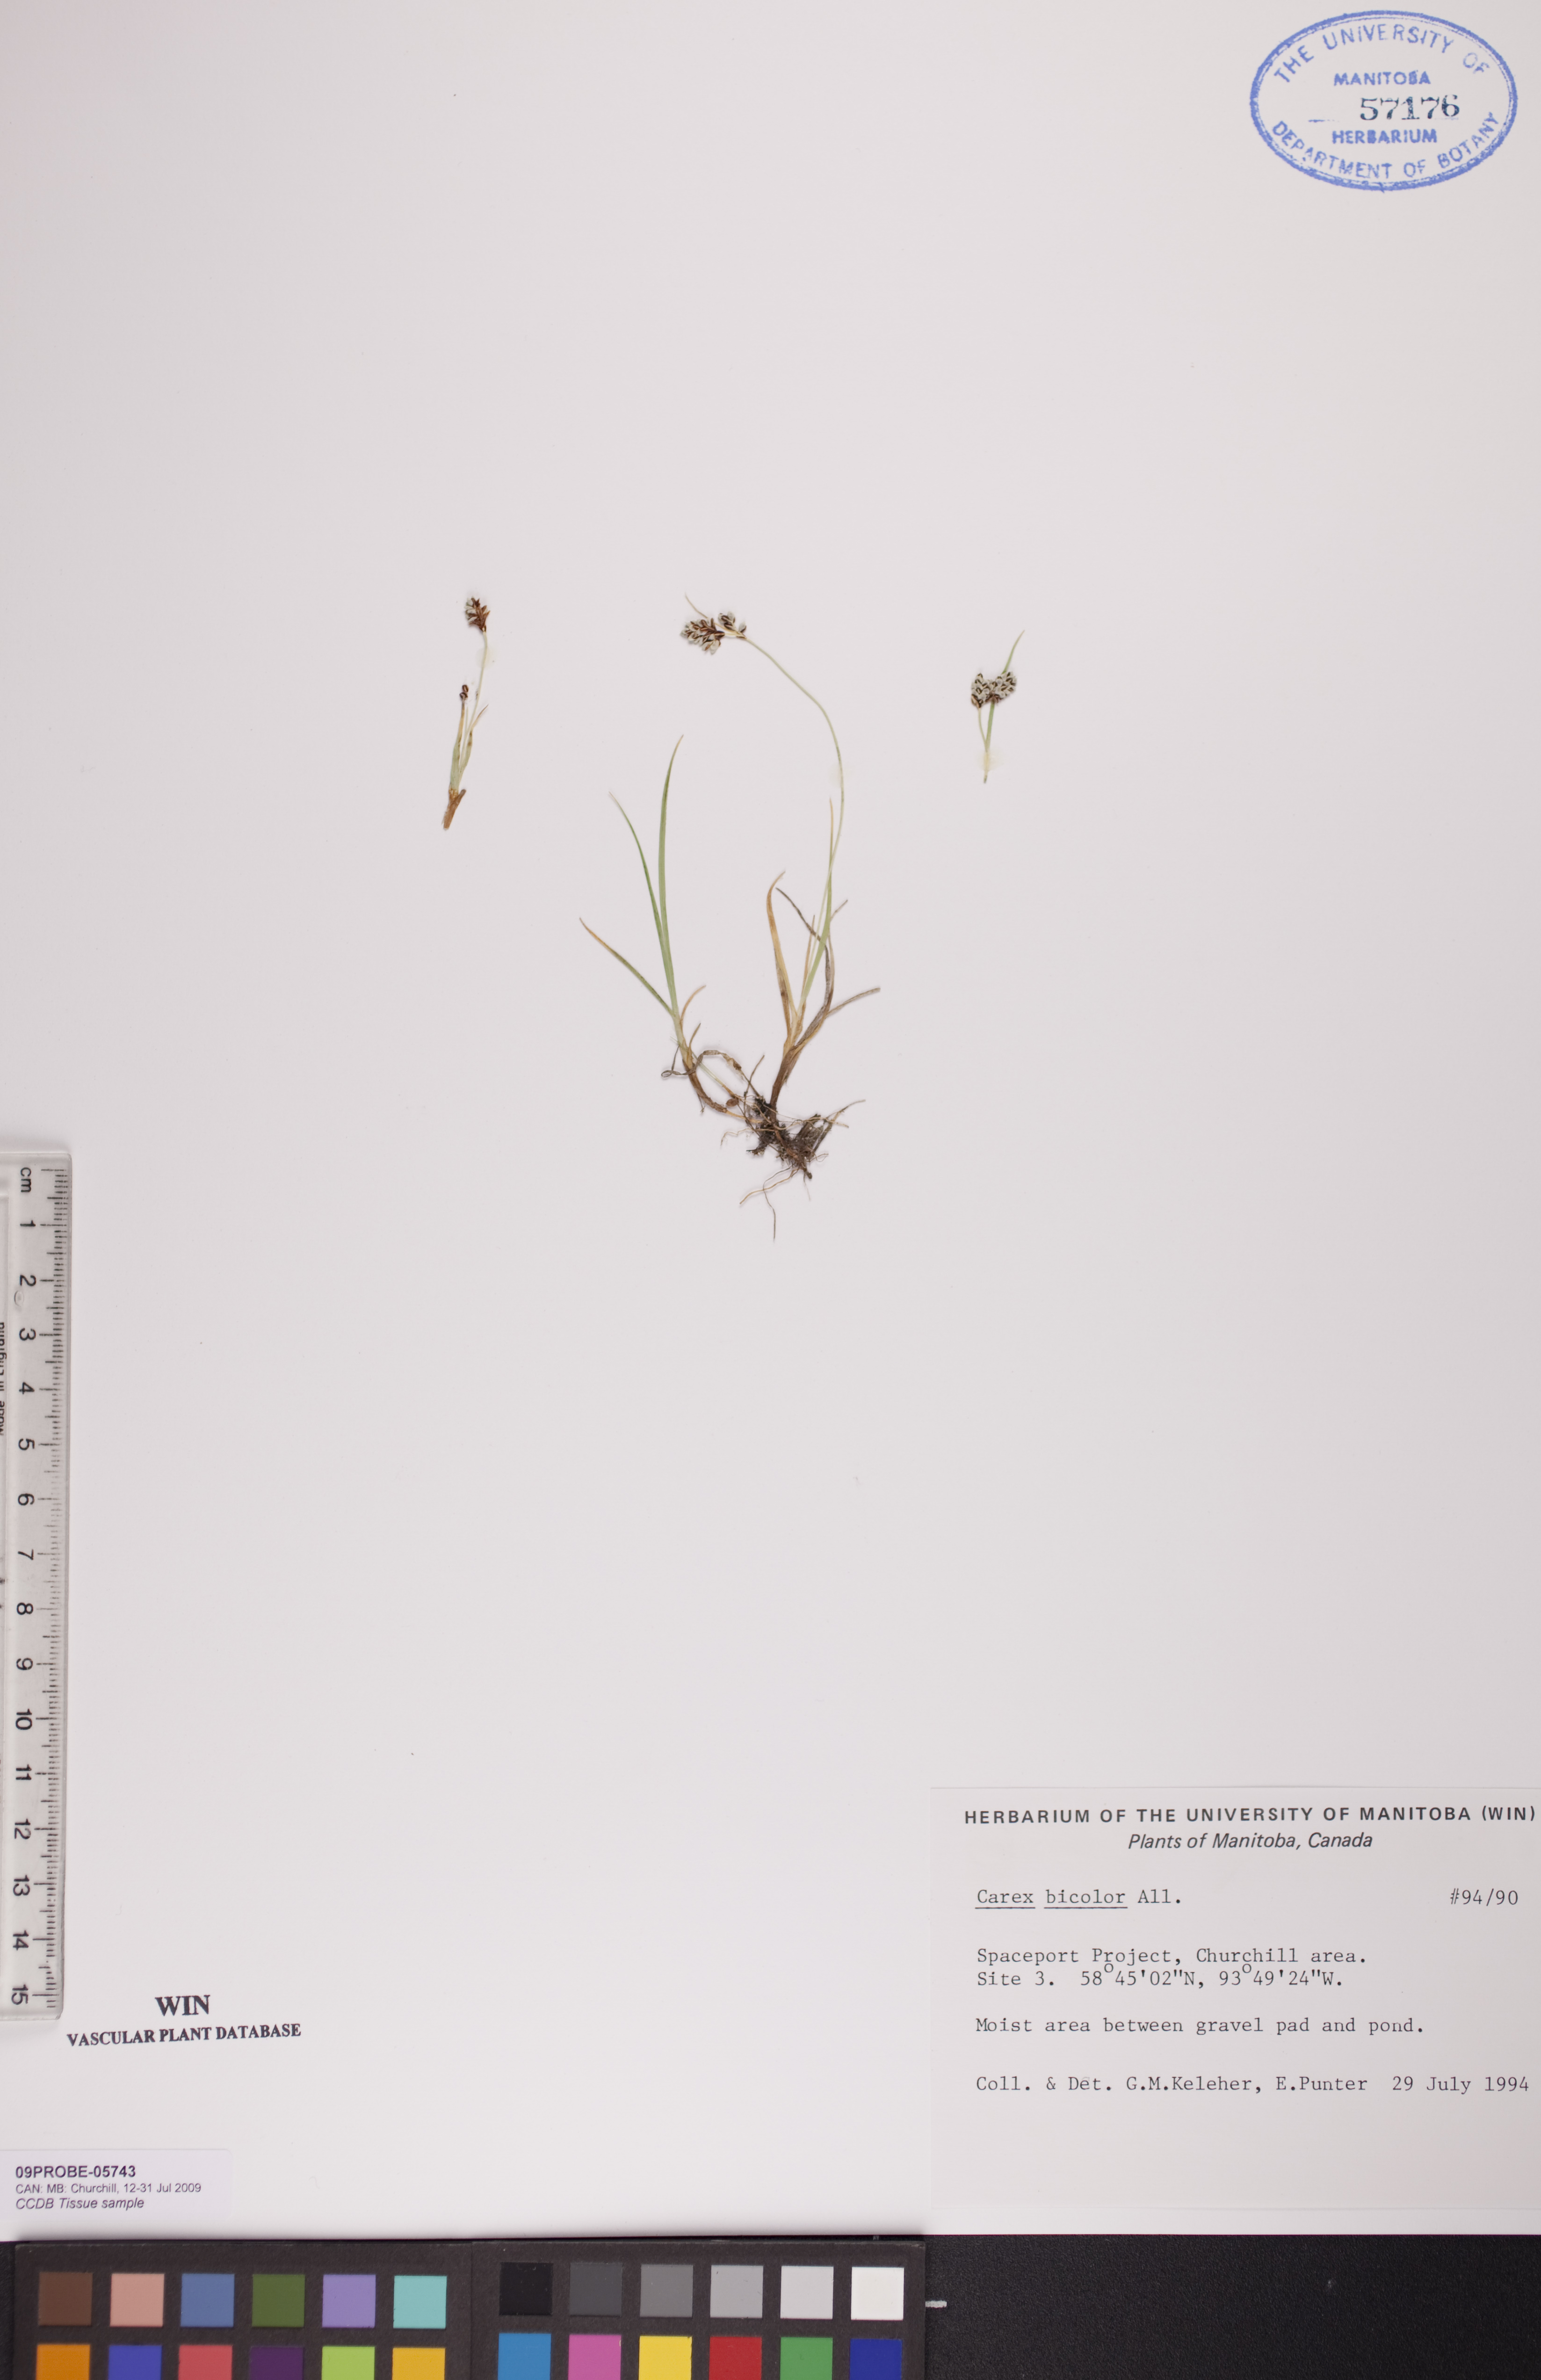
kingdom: Plantae
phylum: Tracheophyta
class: Liliopsida
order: Poales
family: Cyperaceae
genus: Carex
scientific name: Carex bicolor
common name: Bicoloured sedge
